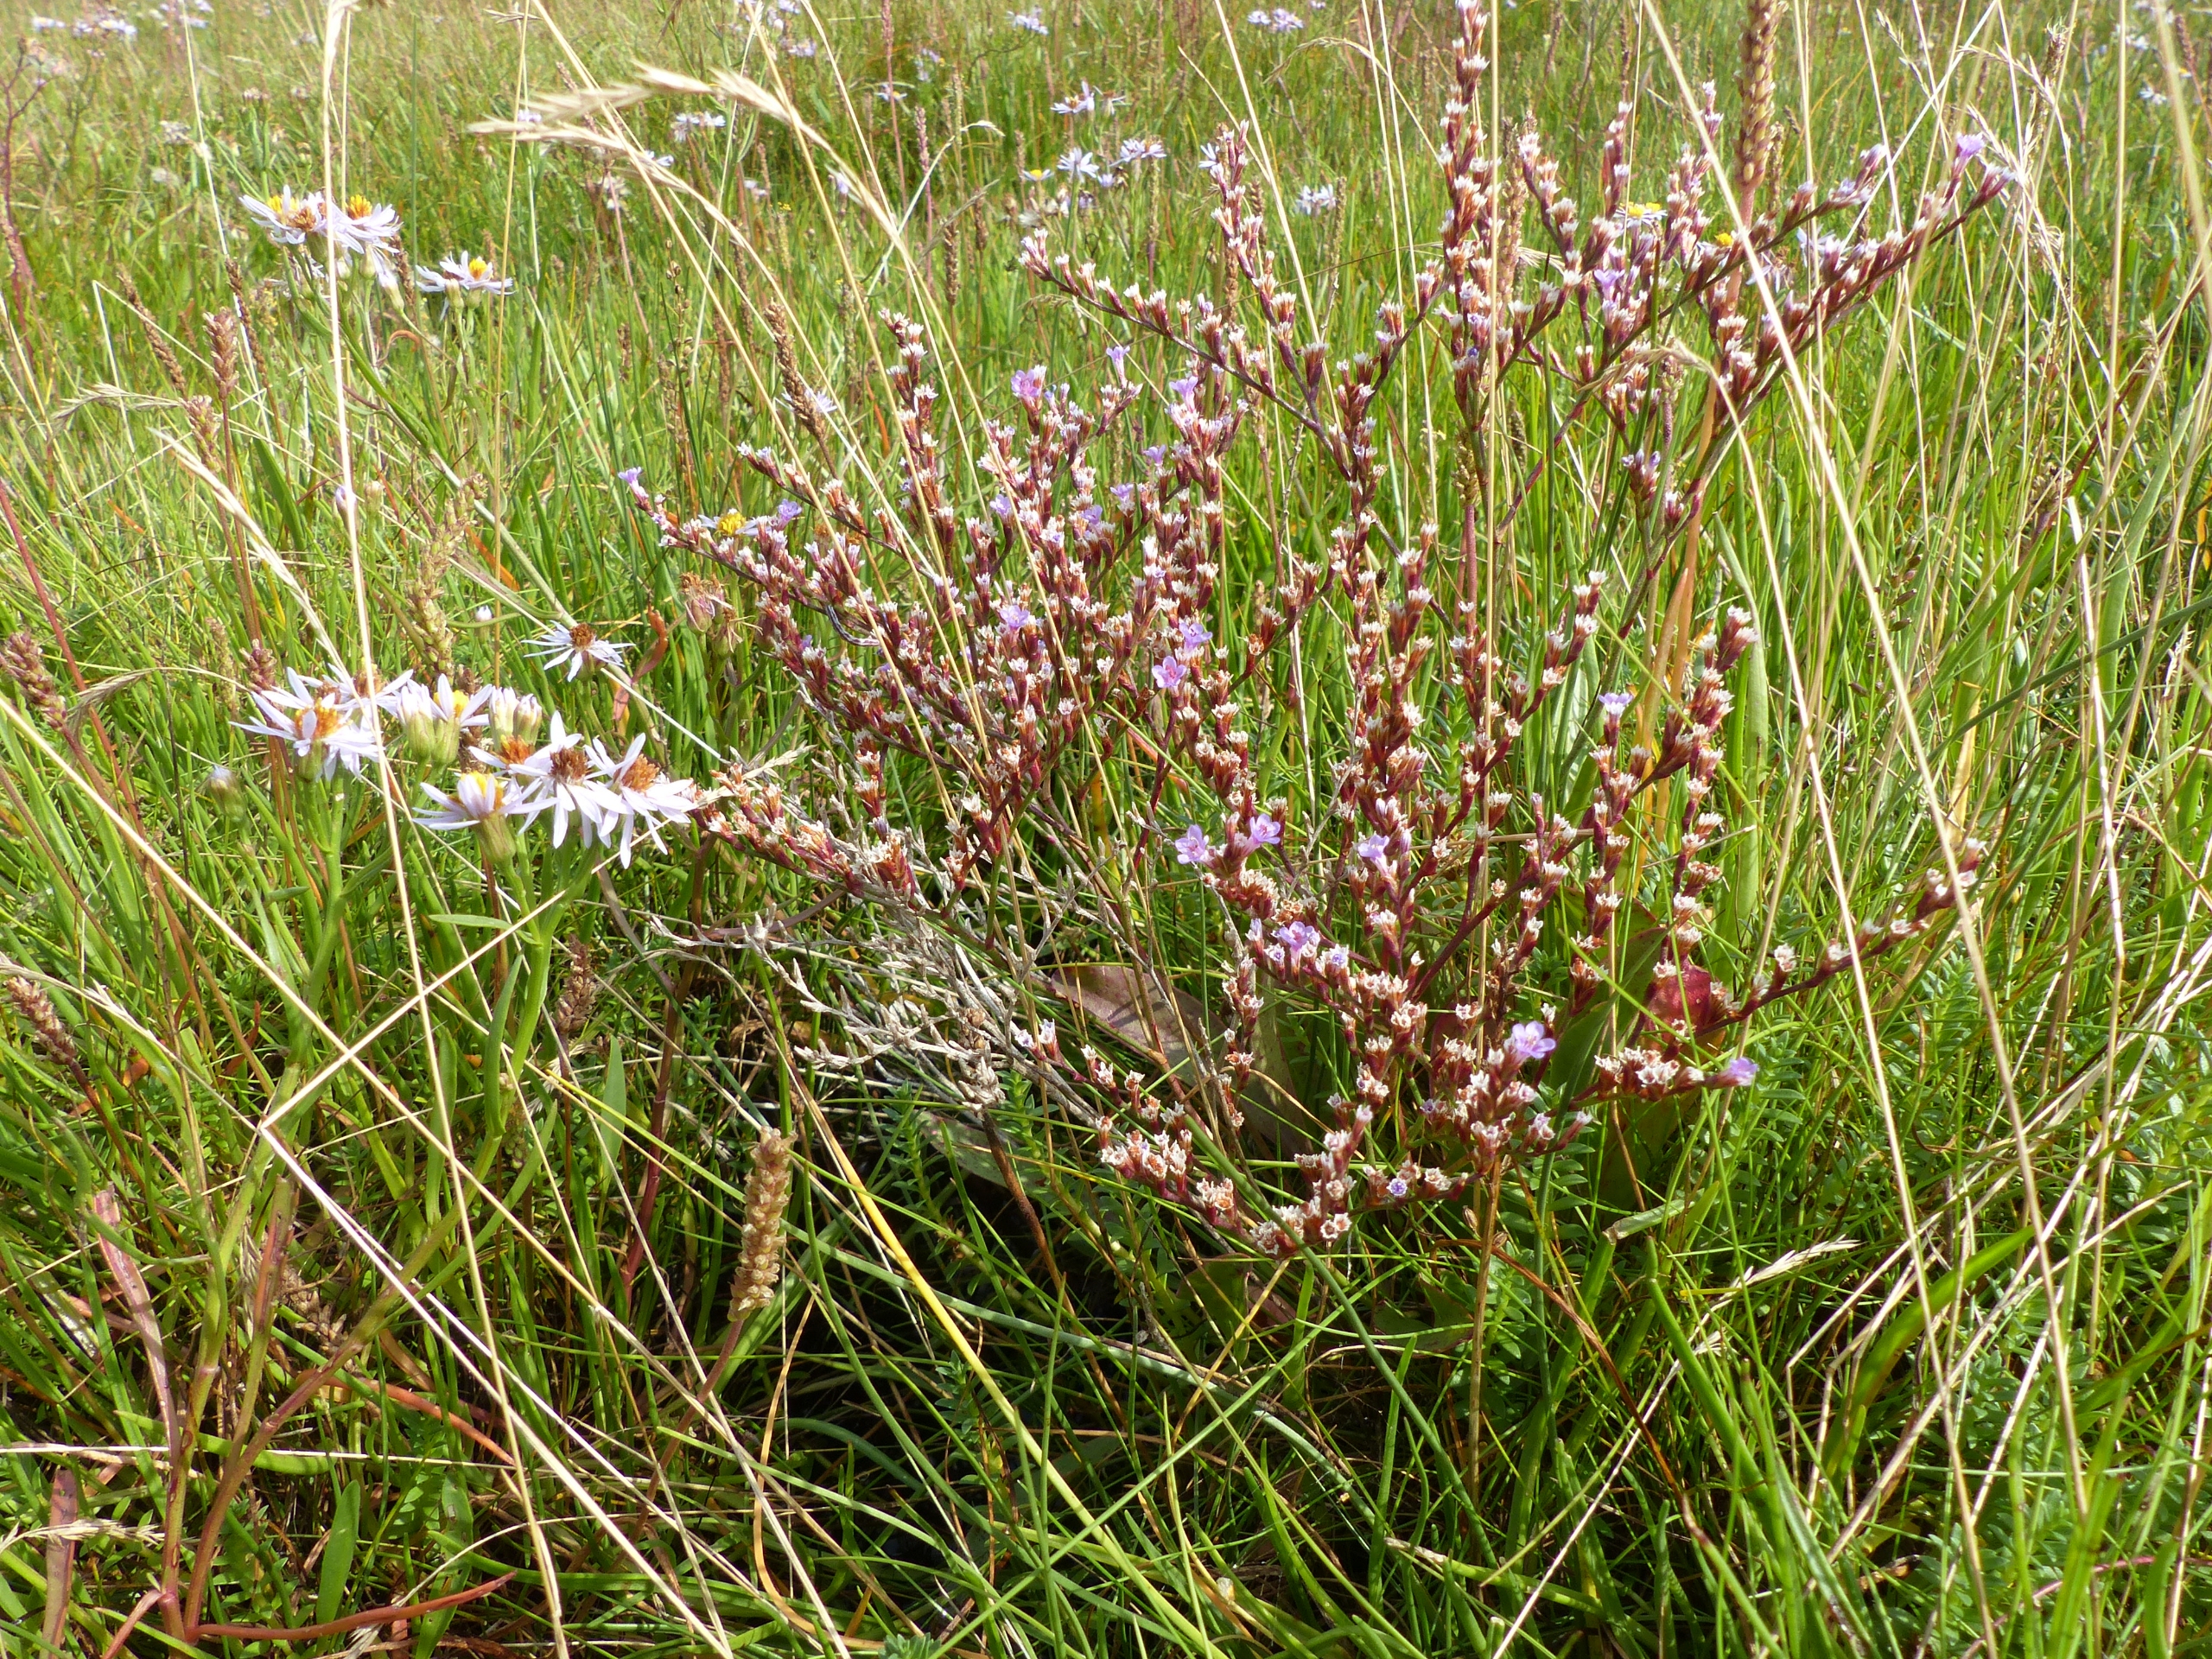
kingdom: Plantae
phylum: Tracheophyta
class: Magnoliopsida
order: Caryophyllales
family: Plumbaginaceae
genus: Limonium
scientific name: Limonium humile
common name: Lav hindebæger
